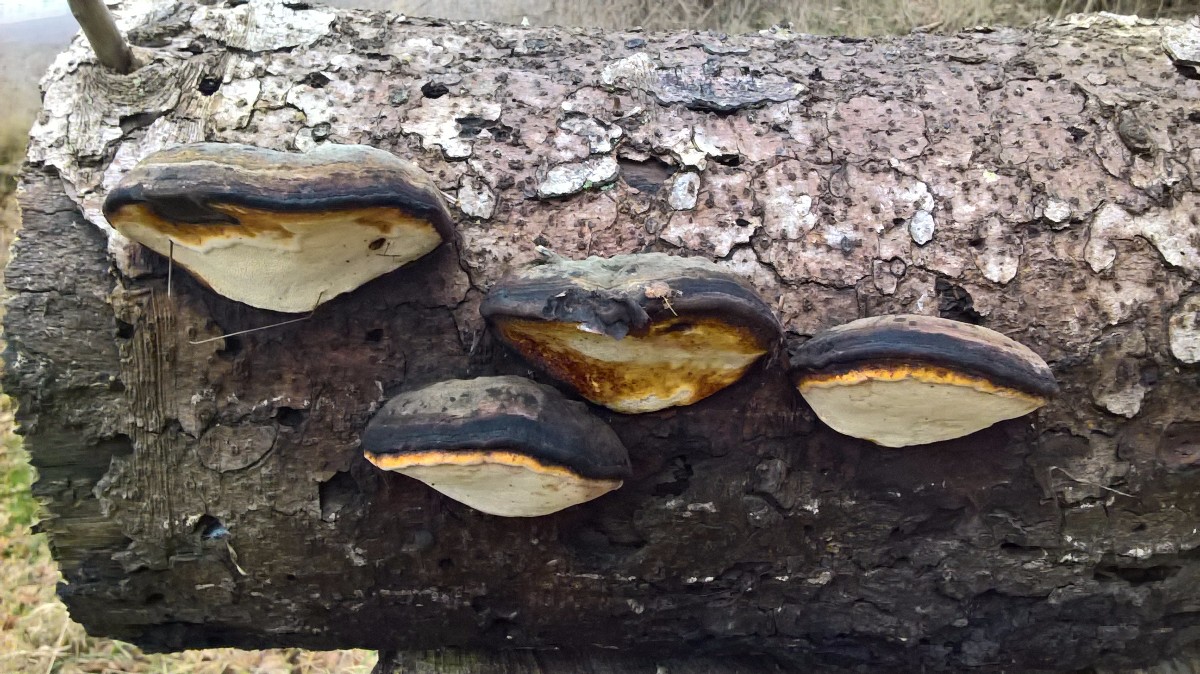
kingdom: Fungi
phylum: Basidiomycota
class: Agaricomycetes
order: Polyporales
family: Fomitopsidaceae
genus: Fomitopsis
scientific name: Fomitopsis pinicola
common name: randbæltet hovporesvamp
